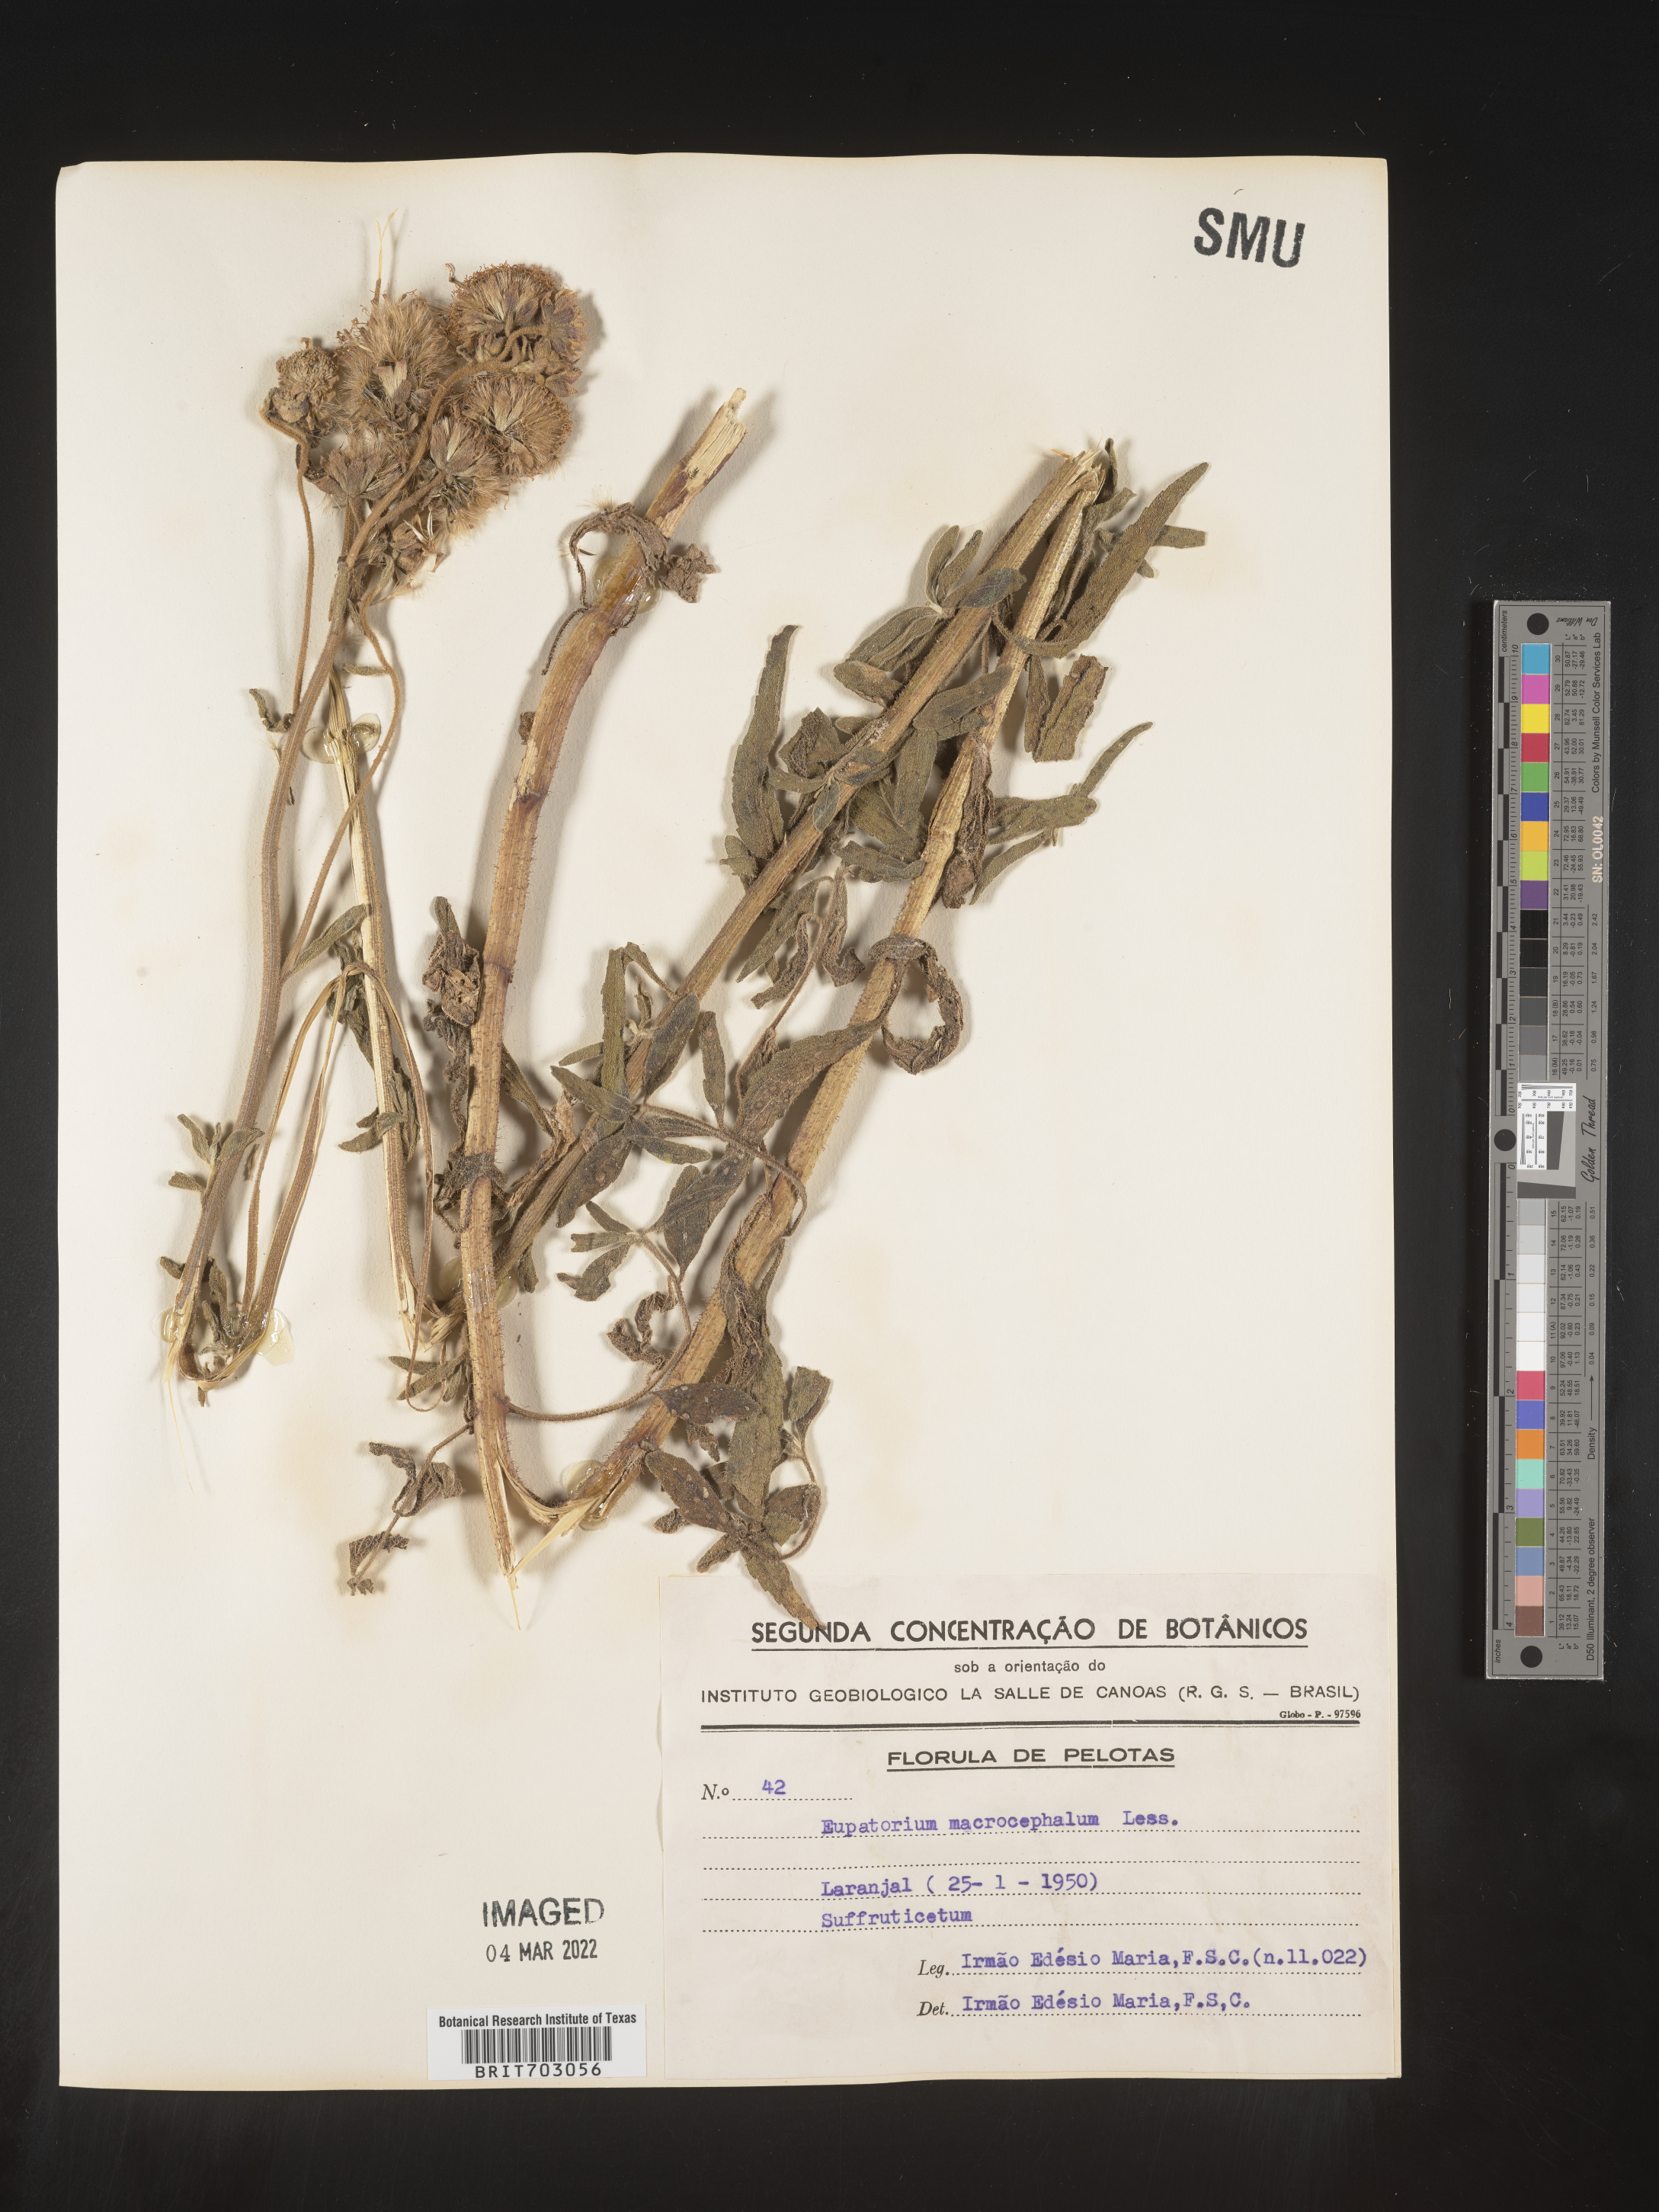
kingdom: Plantae
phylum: Tracheophyta
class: Magnoliopsida
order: Asterales
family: Asteraceae
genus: Eupatorium
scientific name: Eupatorium
